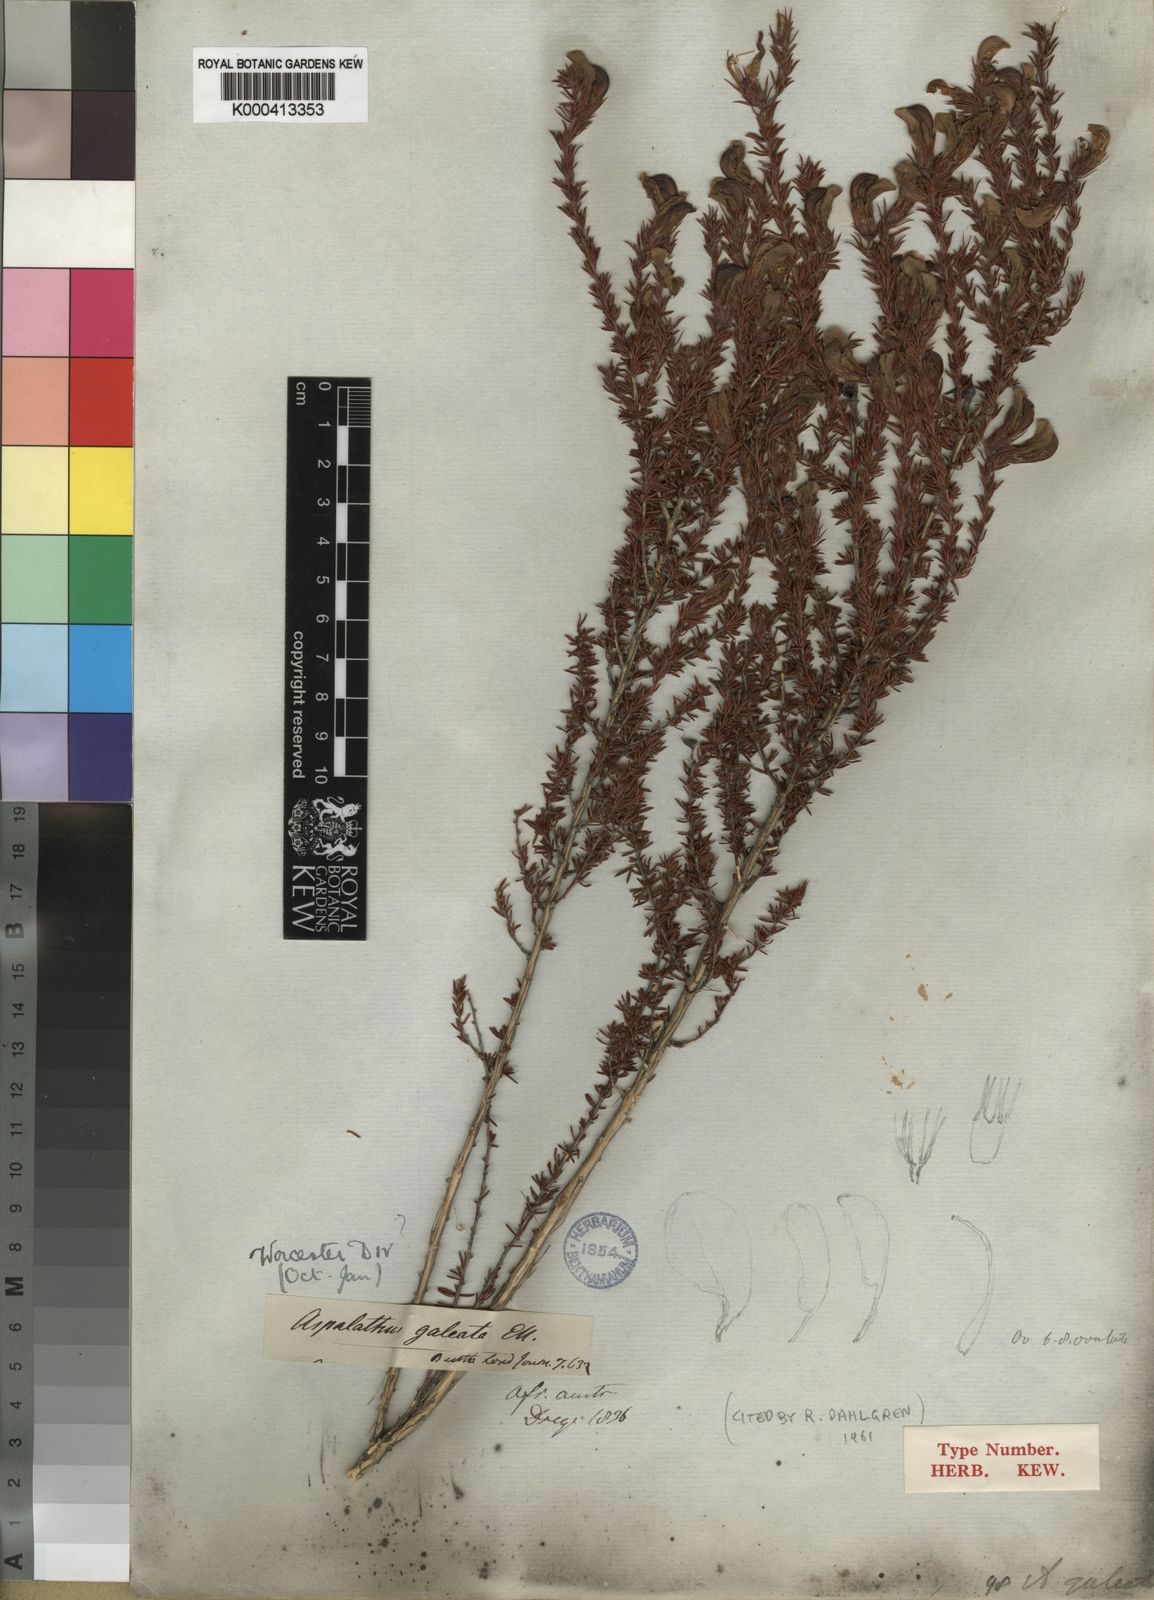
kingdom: Plantae
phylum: Tracheophyta
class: Magnoliopsida
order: Fabales
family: Fabaceae
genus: Aspalathus
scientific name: Aspalathus galeata
